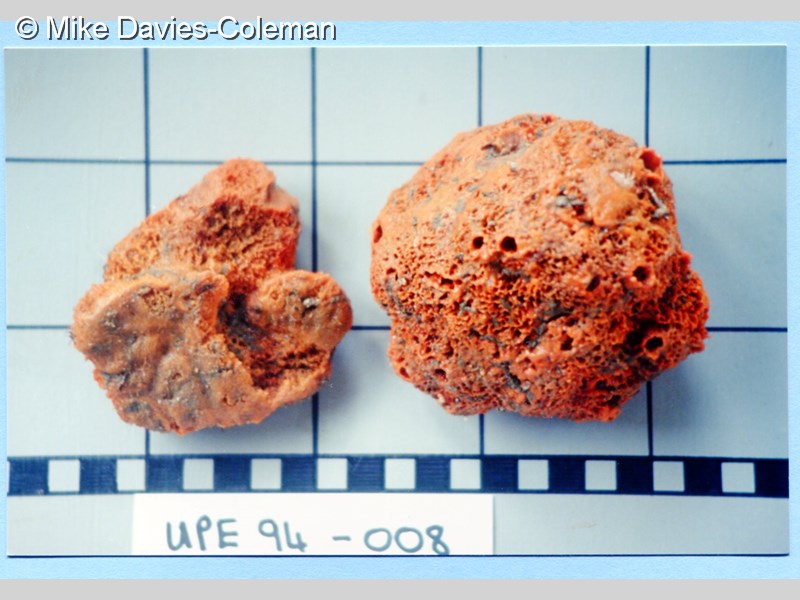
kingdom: Animalia
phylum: Porifera
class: Demospongiae
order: Poecilosclerida
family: Coelosphaeridae
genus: Lissodendoryx
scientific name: Lissodendoryx ternatensis
